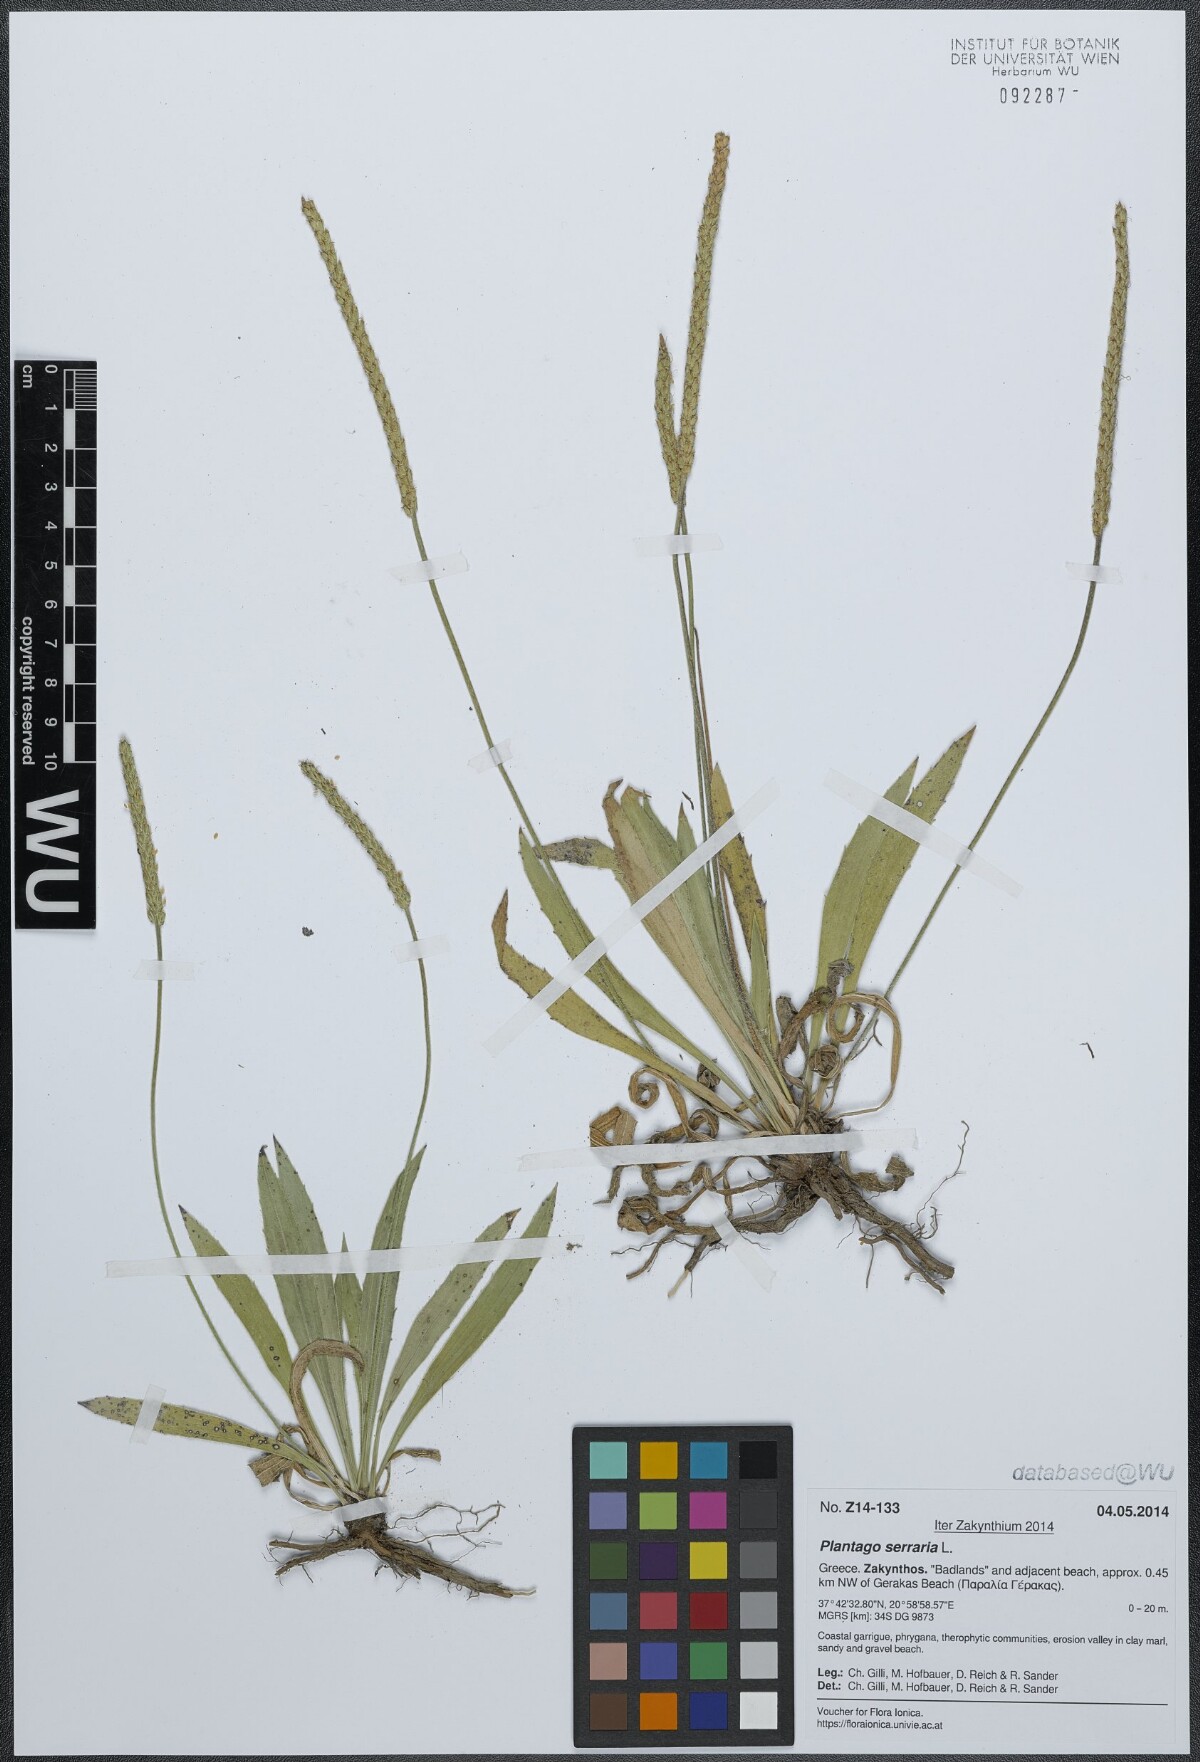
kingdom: Plantae
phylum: Tracheophyta
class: Magnoliopsida
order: Lamiales
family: Plantaginaceae
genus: Plantago
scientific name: Plantago serraria
